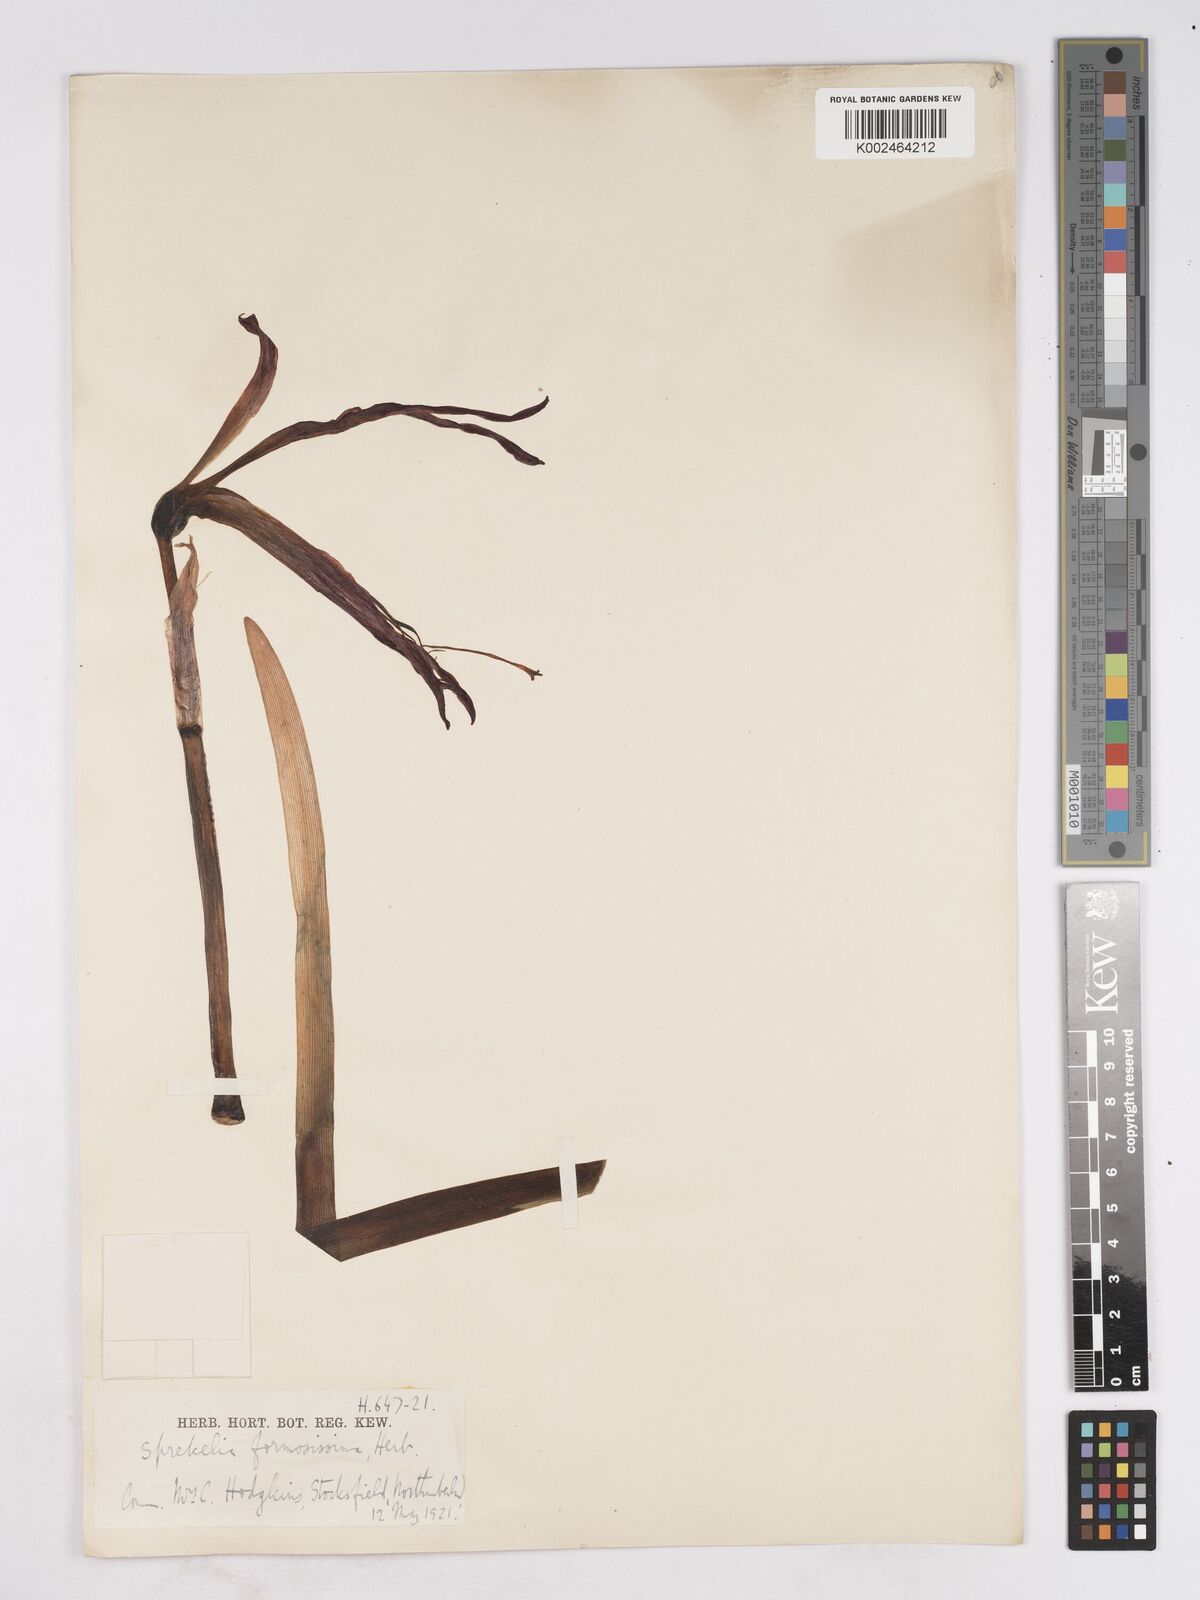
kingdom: Plantae
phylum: Tracheophyta
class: Liliopsida
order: Asparagales
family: Amaryllidaceae
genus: Sprekelia
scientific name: Sprekelia formosissima
